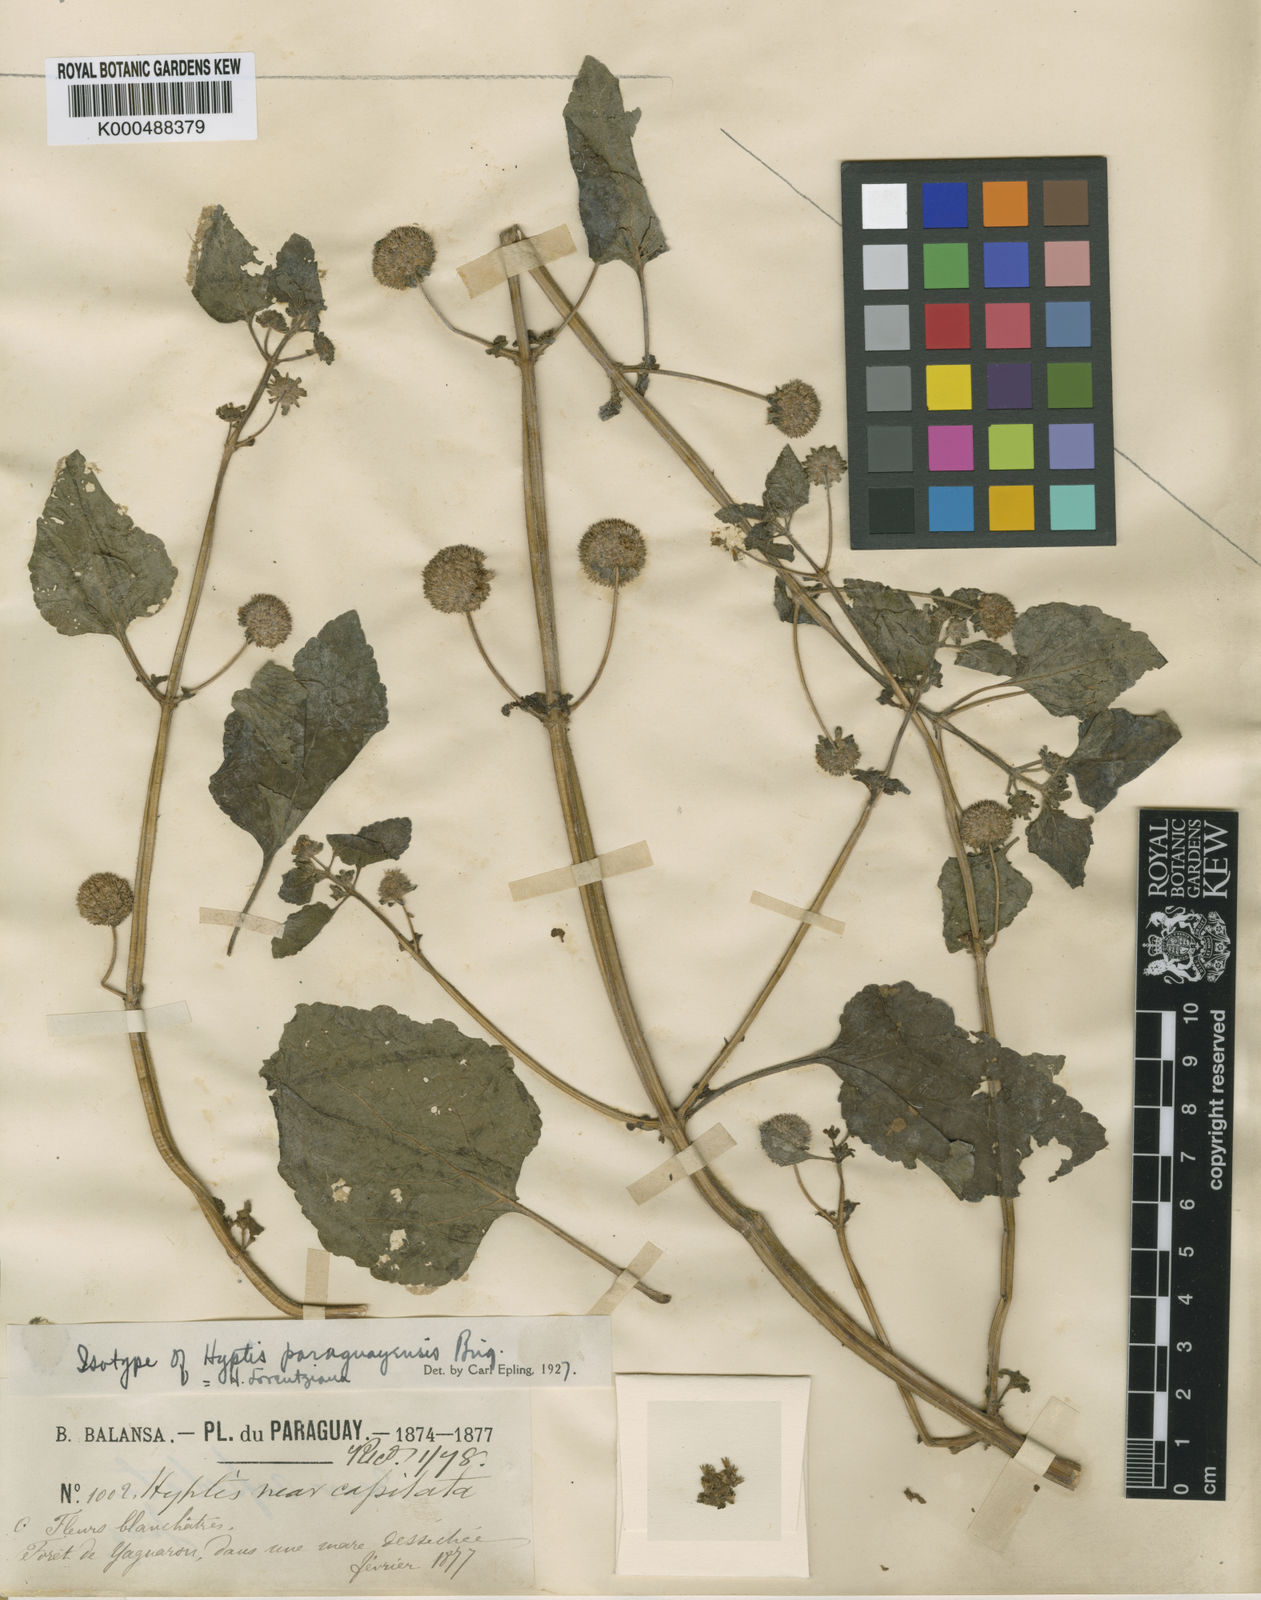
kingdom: Plantae
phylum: Tracheophyta
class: Magnoliopsida
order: Lamiales
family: Lamiaceae
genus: Hyptis
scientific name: Hyptis lorentziana
